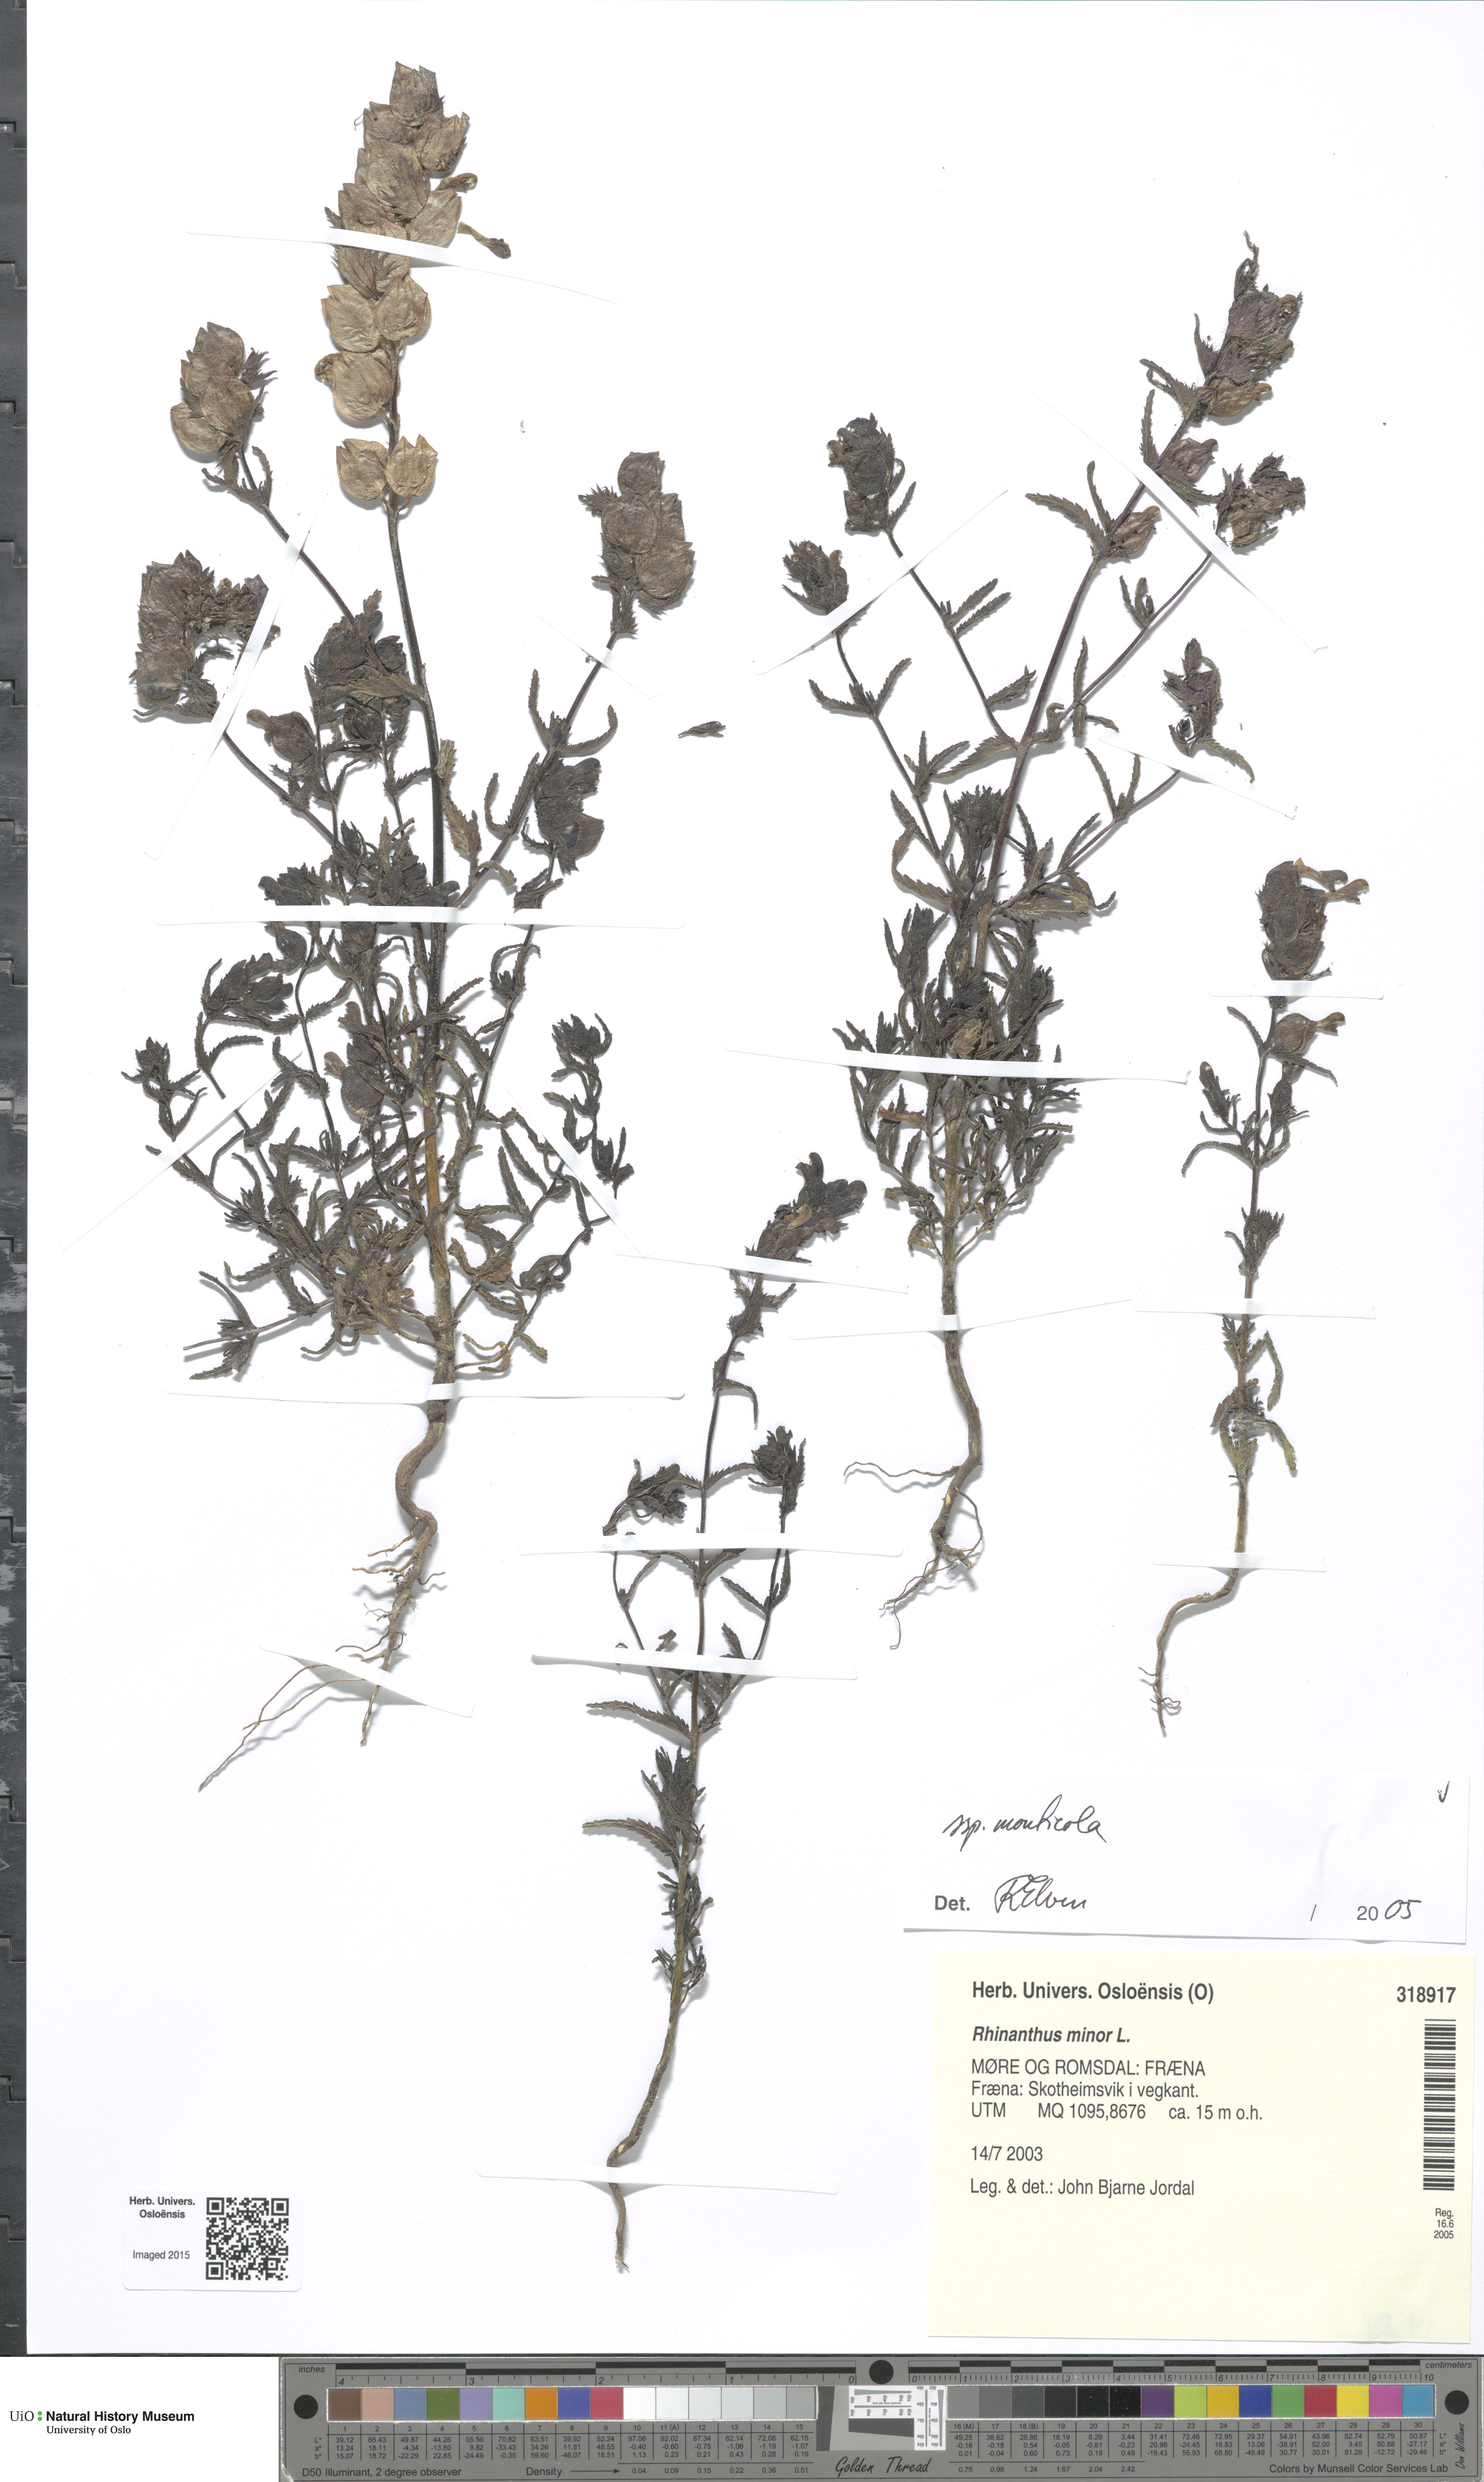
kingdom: Plantae
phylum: Tracheophyta
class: Magnoliopsida
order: Lamiales
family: Orobanchaceae
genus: Rhinanthus
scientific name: Rhinanthus minor
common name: Yellow-rattle
